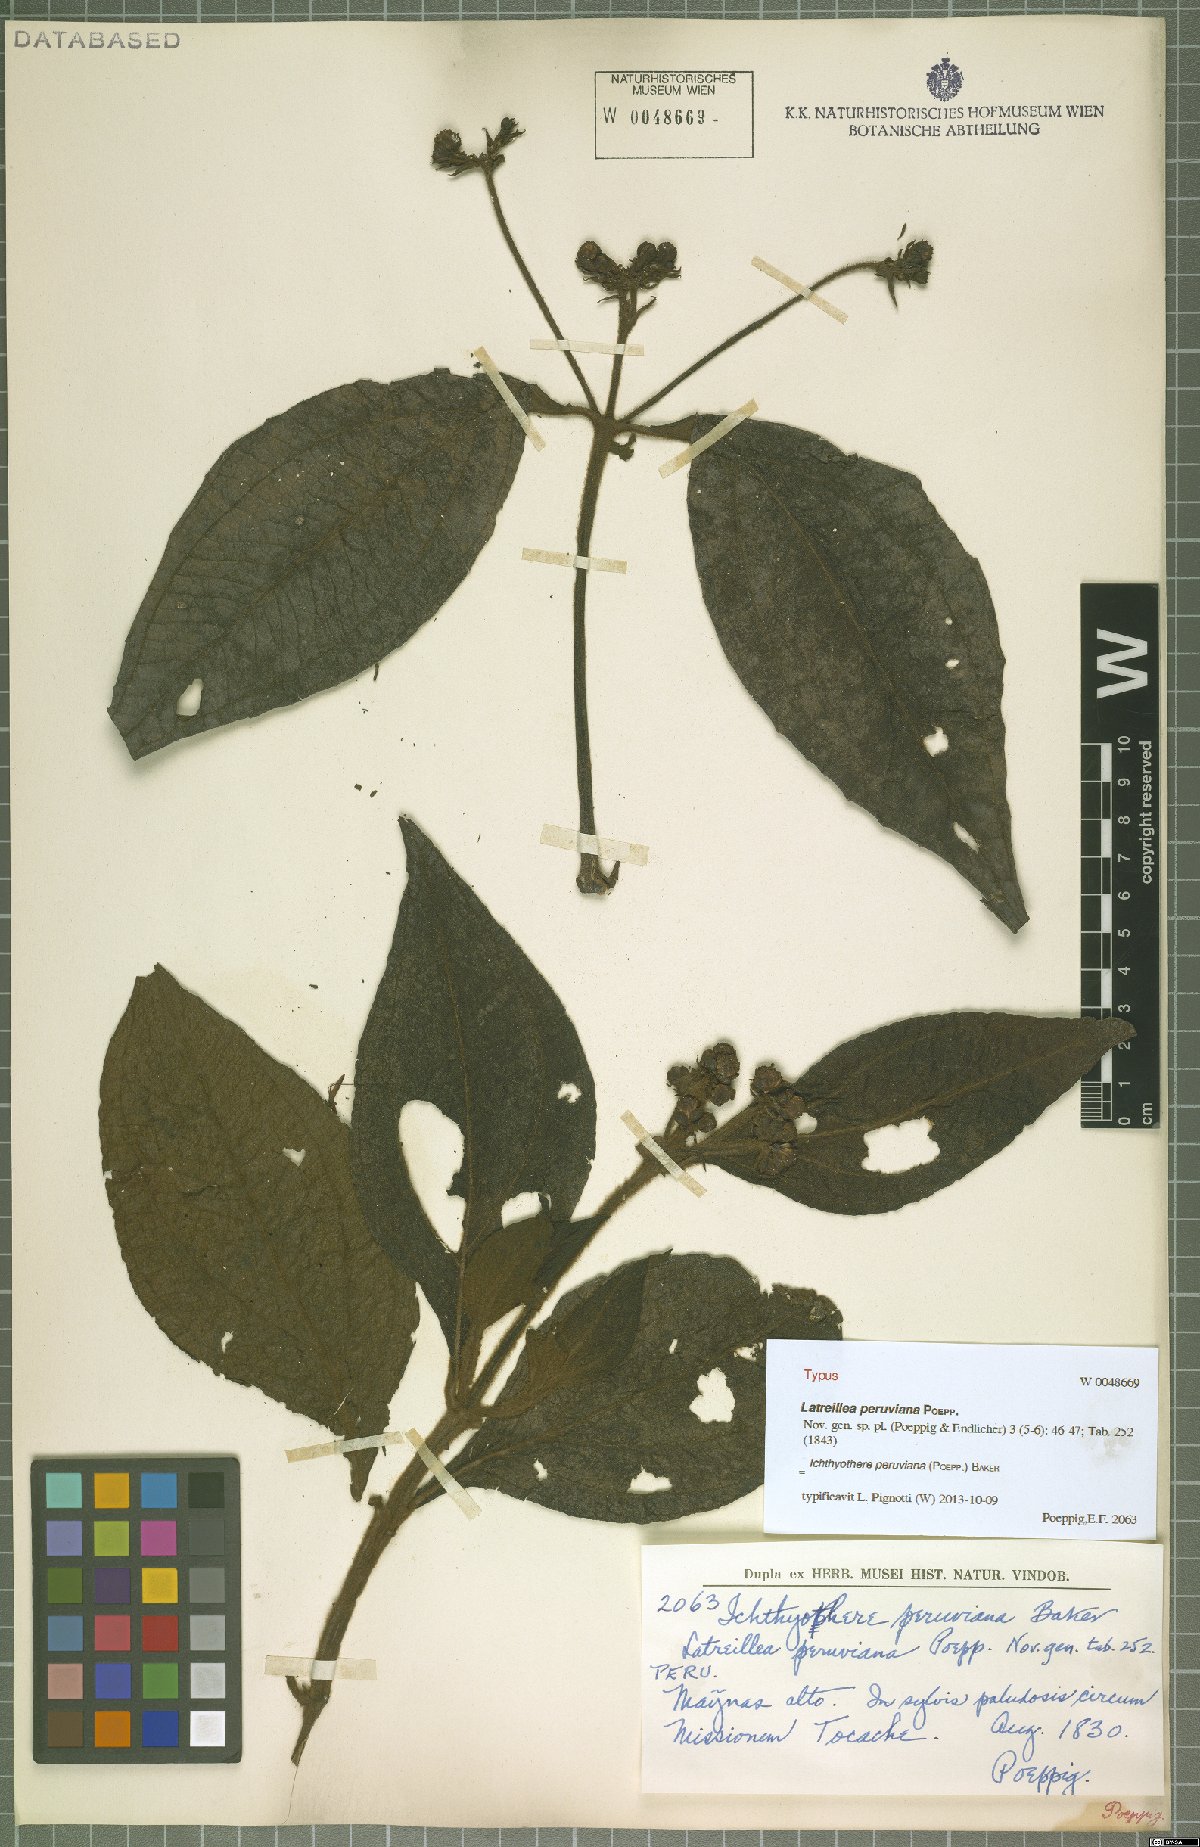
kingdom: Plantae
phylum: Tracheophyta
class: Magnoliopsida
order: Asterales
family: Asteraceae
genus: Ichthyothere
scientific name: Ichthyothere peruviana
